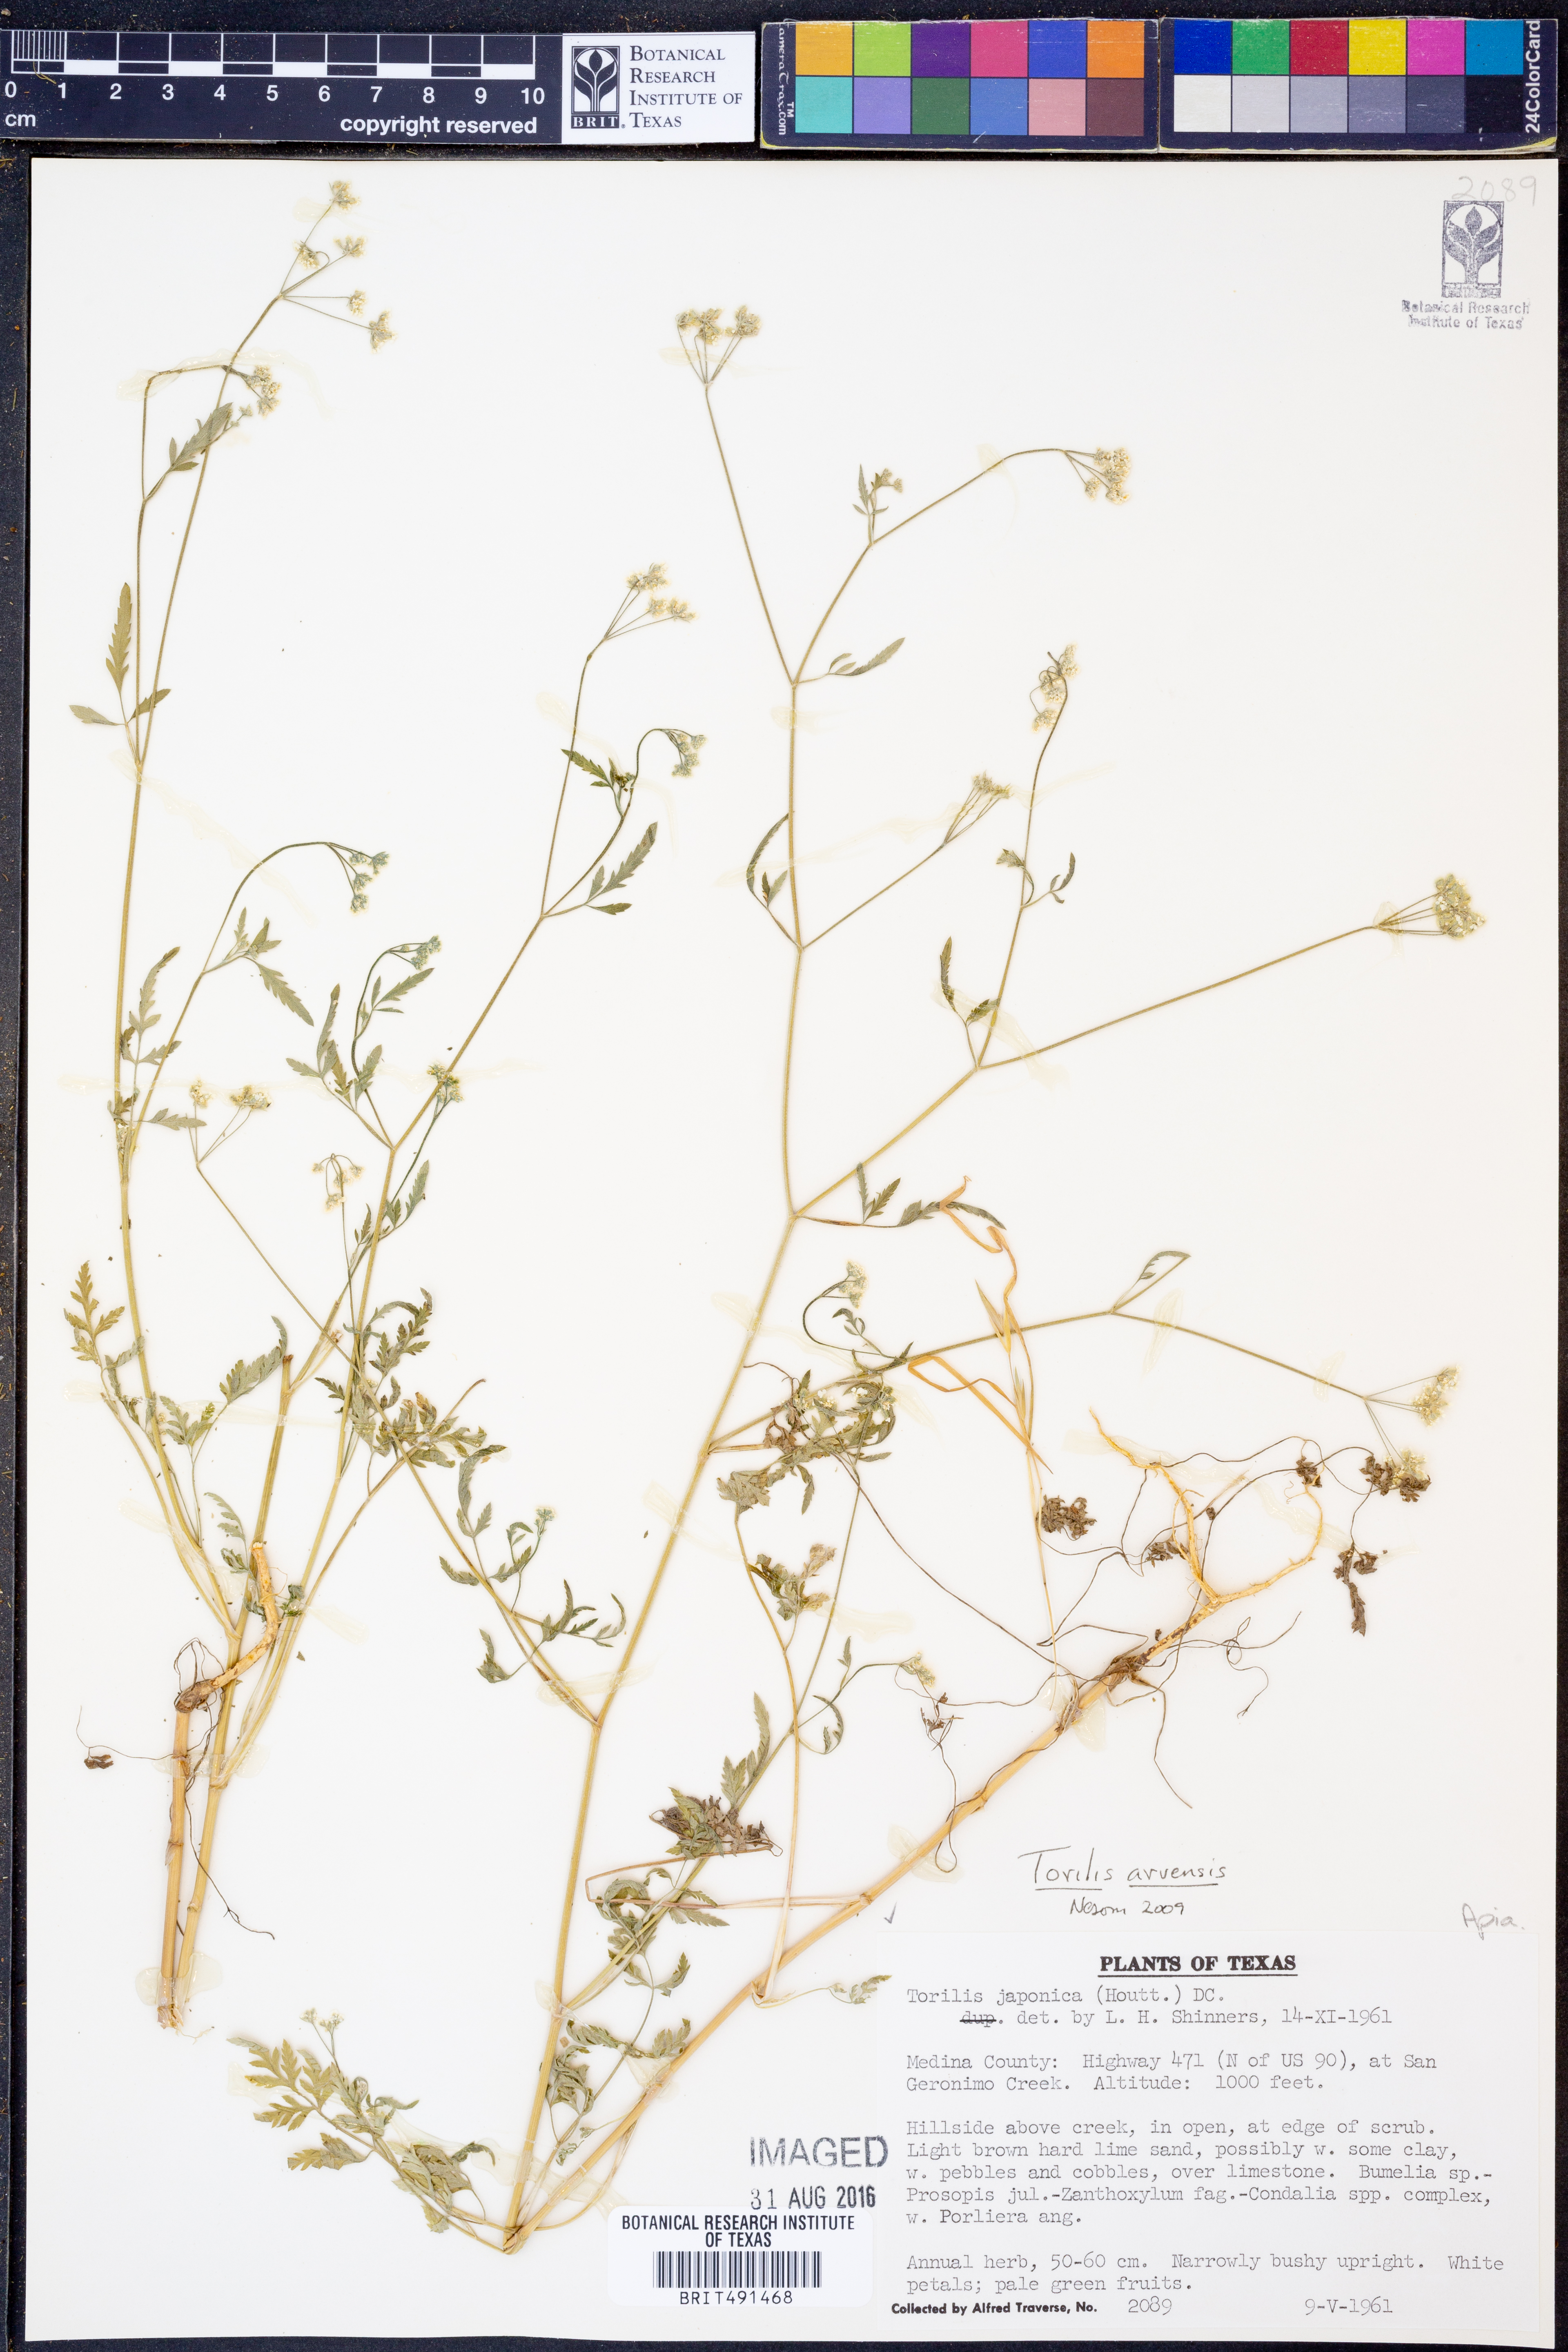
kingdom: Plantae
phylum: Tracheophyta
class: Magnoliopsida
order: Apiales
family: Apiaceae
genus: Torilis
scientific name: Torilis arvensis
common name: Spreading hedge-parsley
